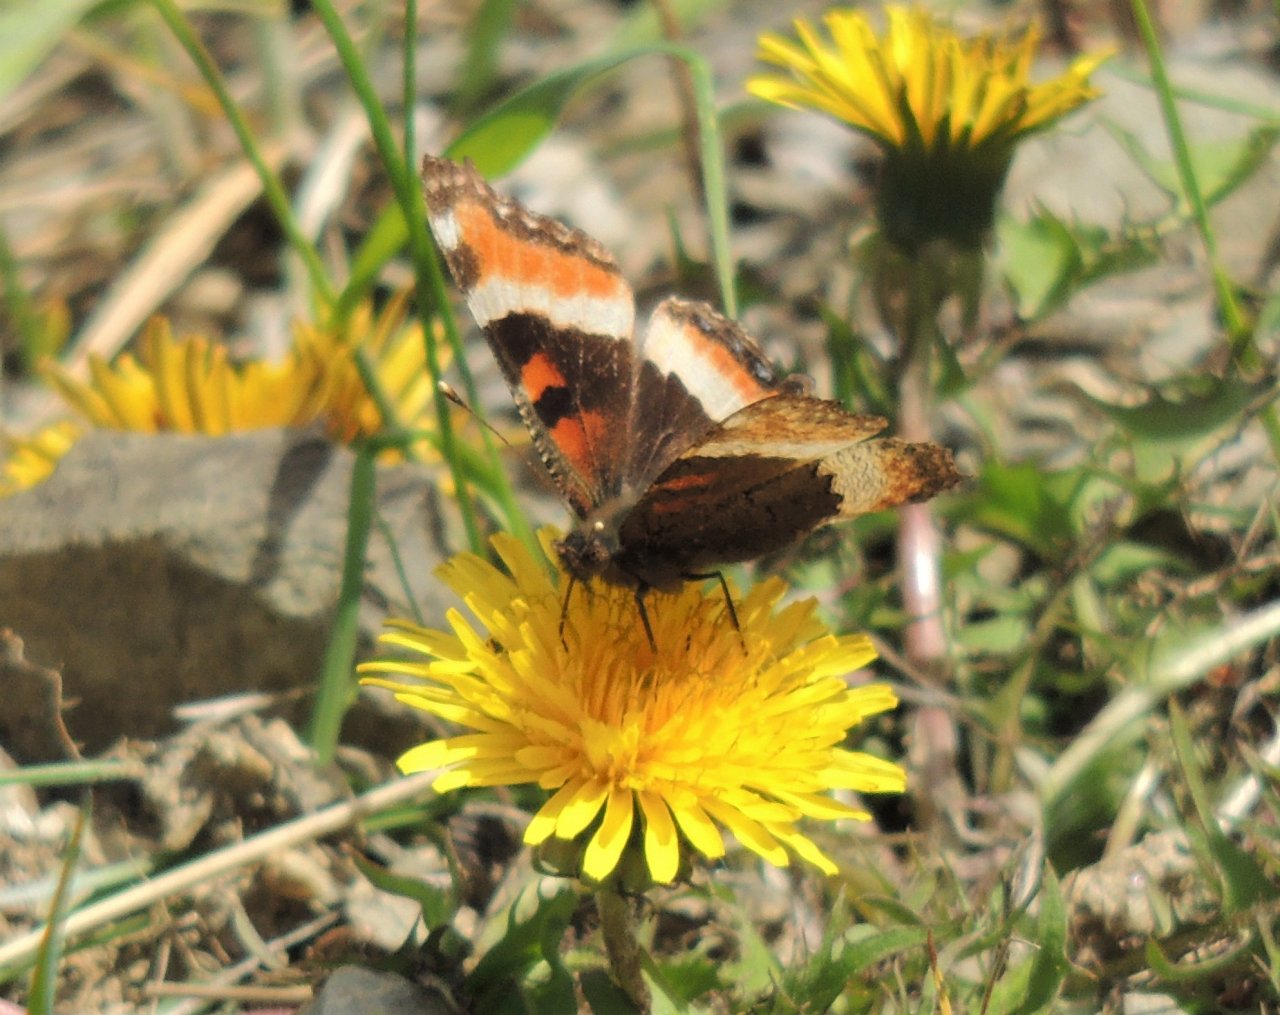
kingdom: Animalia
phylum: Arthropoda
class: Insecta
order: Lepidoptera
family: Nymphalidae
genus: Aglais
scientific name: Aglais milberti
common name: Milbert's Tortoiseshell
